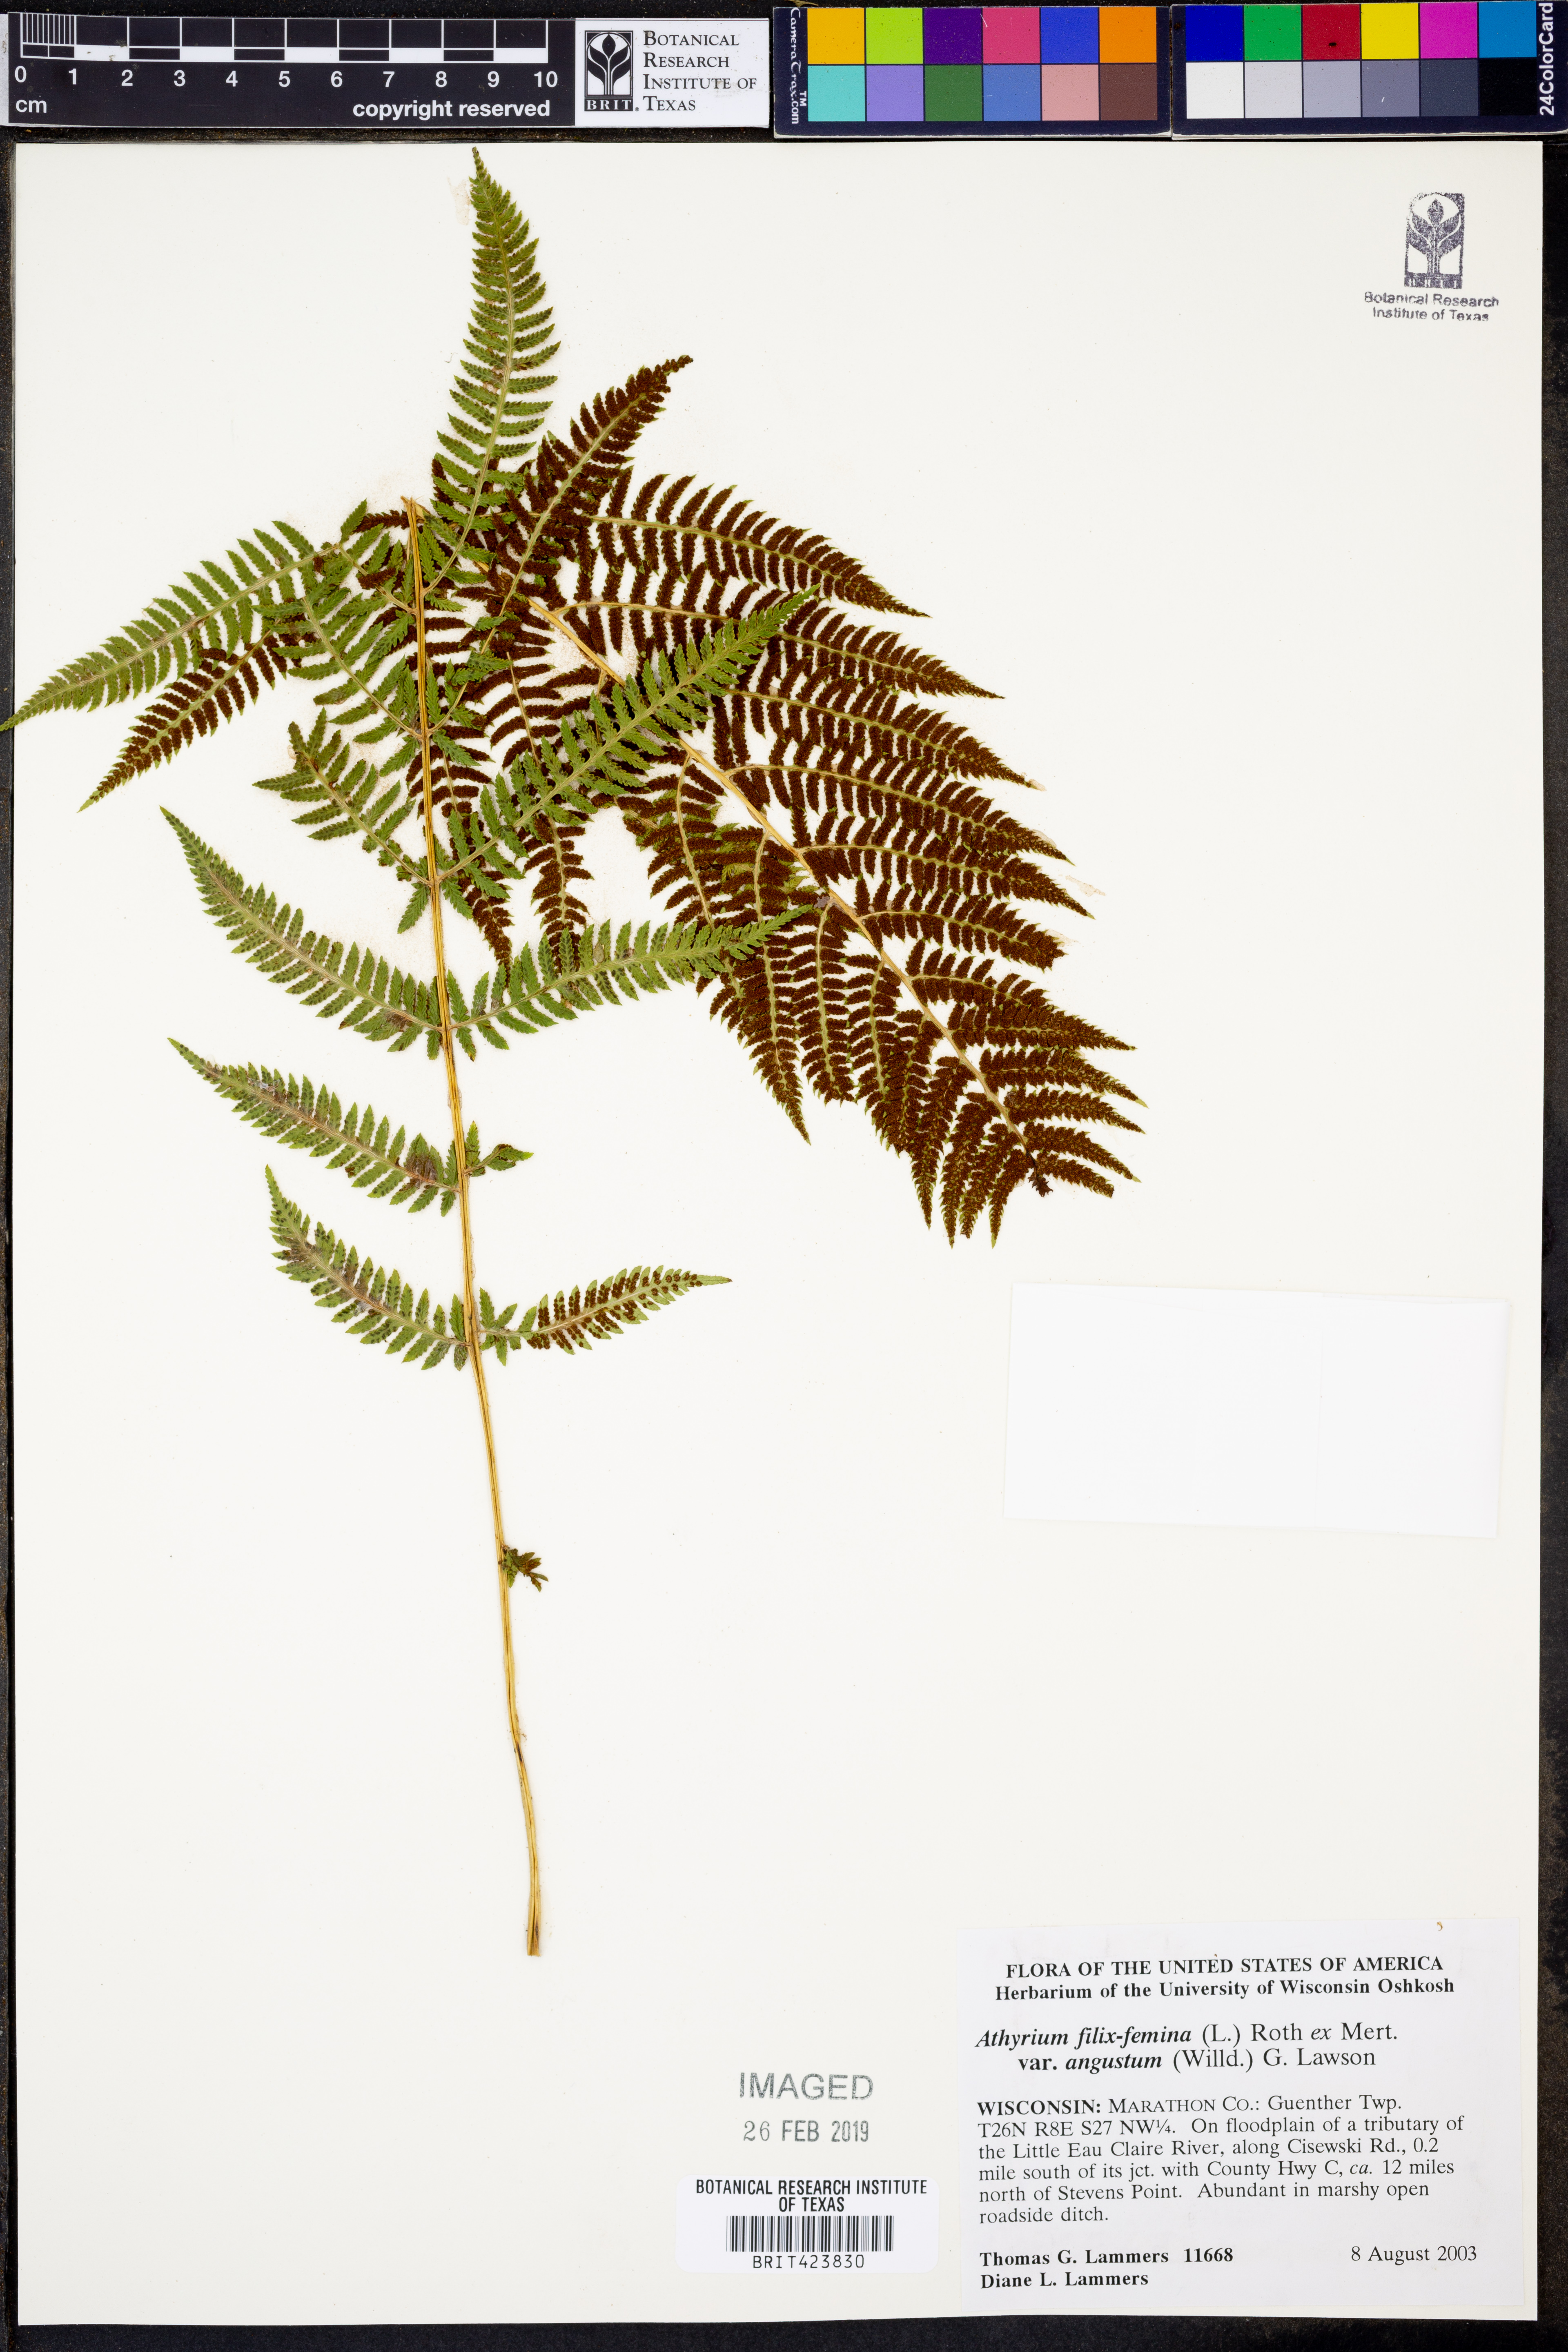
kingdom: Plantae
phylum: Tracheophyta
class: Polypodiopsida
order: Polypodiales
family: Athyriaceae
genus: Athyrium
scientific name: Athyrium angustum
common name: Northern lady fern
